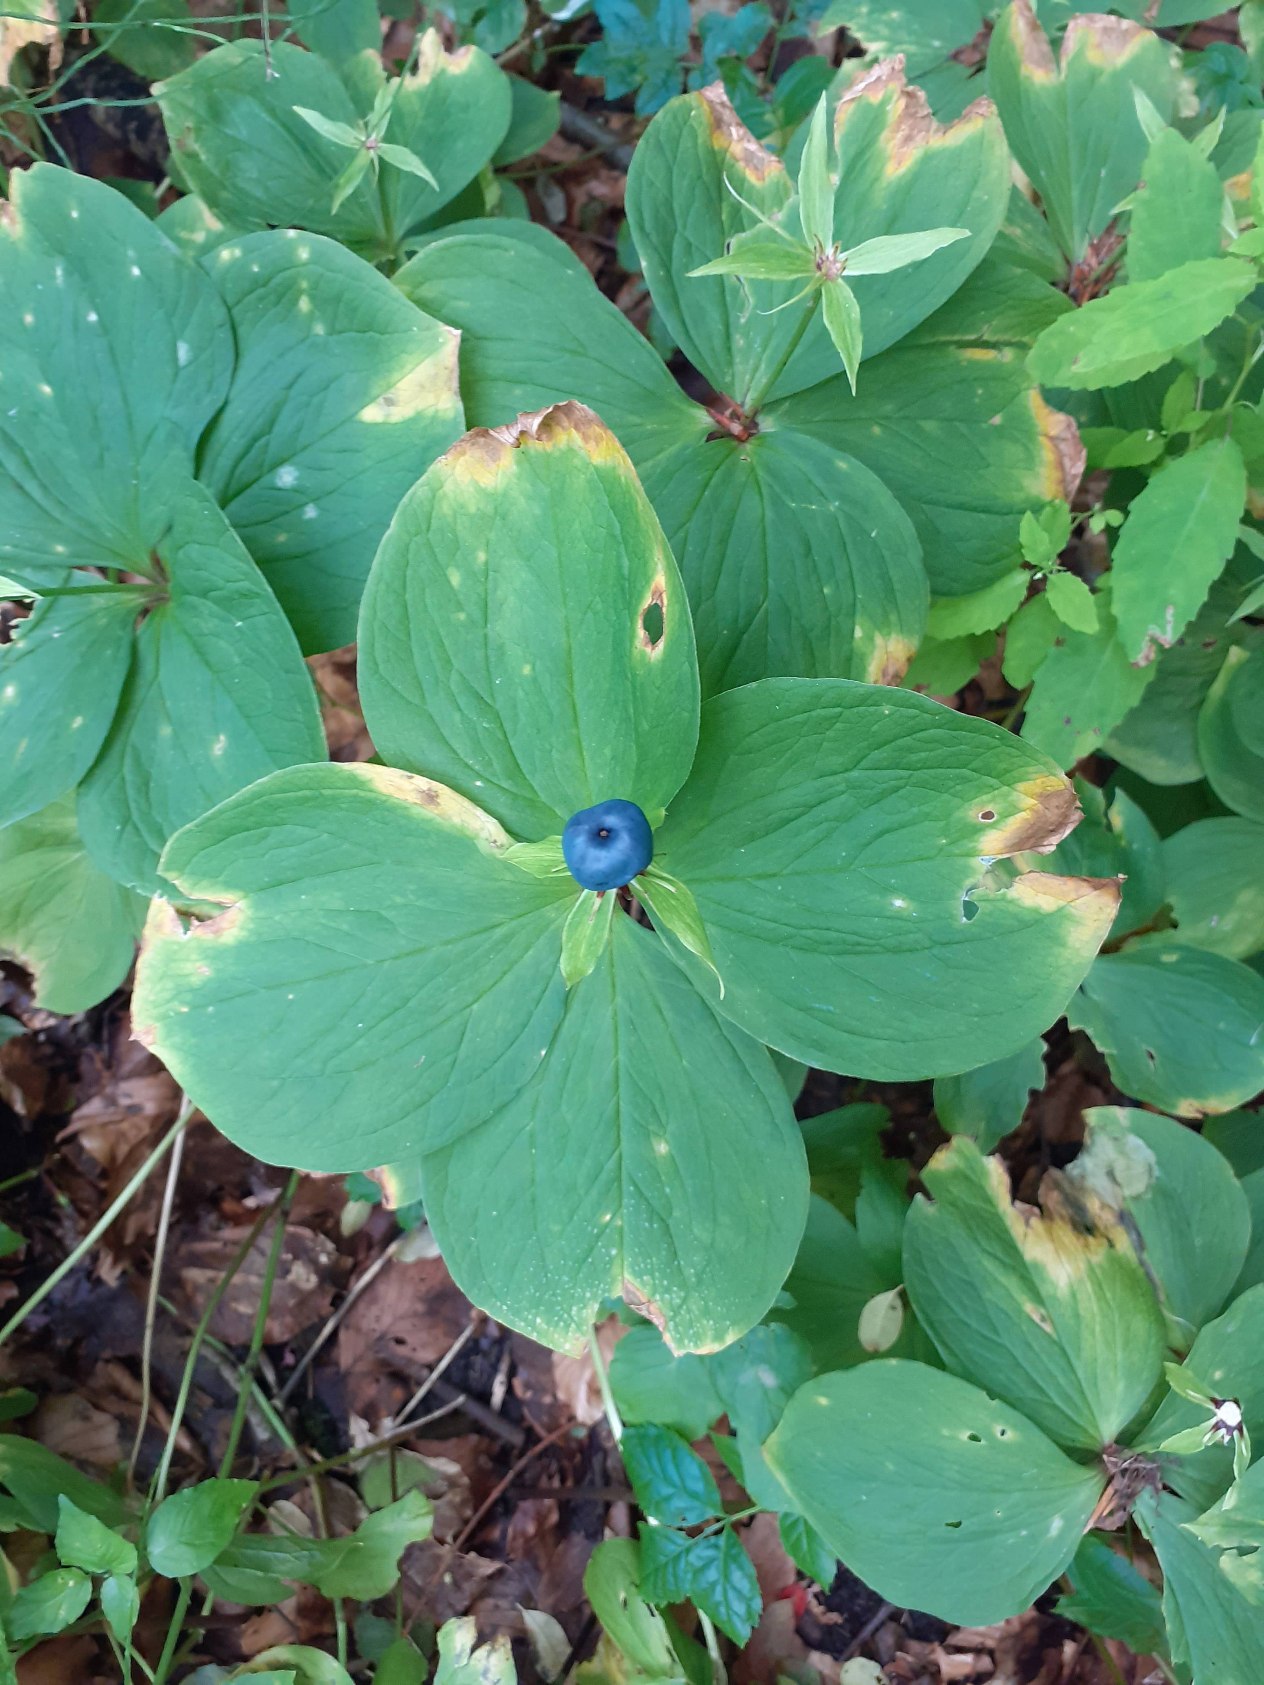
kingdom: Plantae
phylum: Tracheophyta
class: Liliopsida
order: Liliales
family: Melanthiaceae
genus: Paris
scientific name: Paris quadrifolia
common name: Firblad
